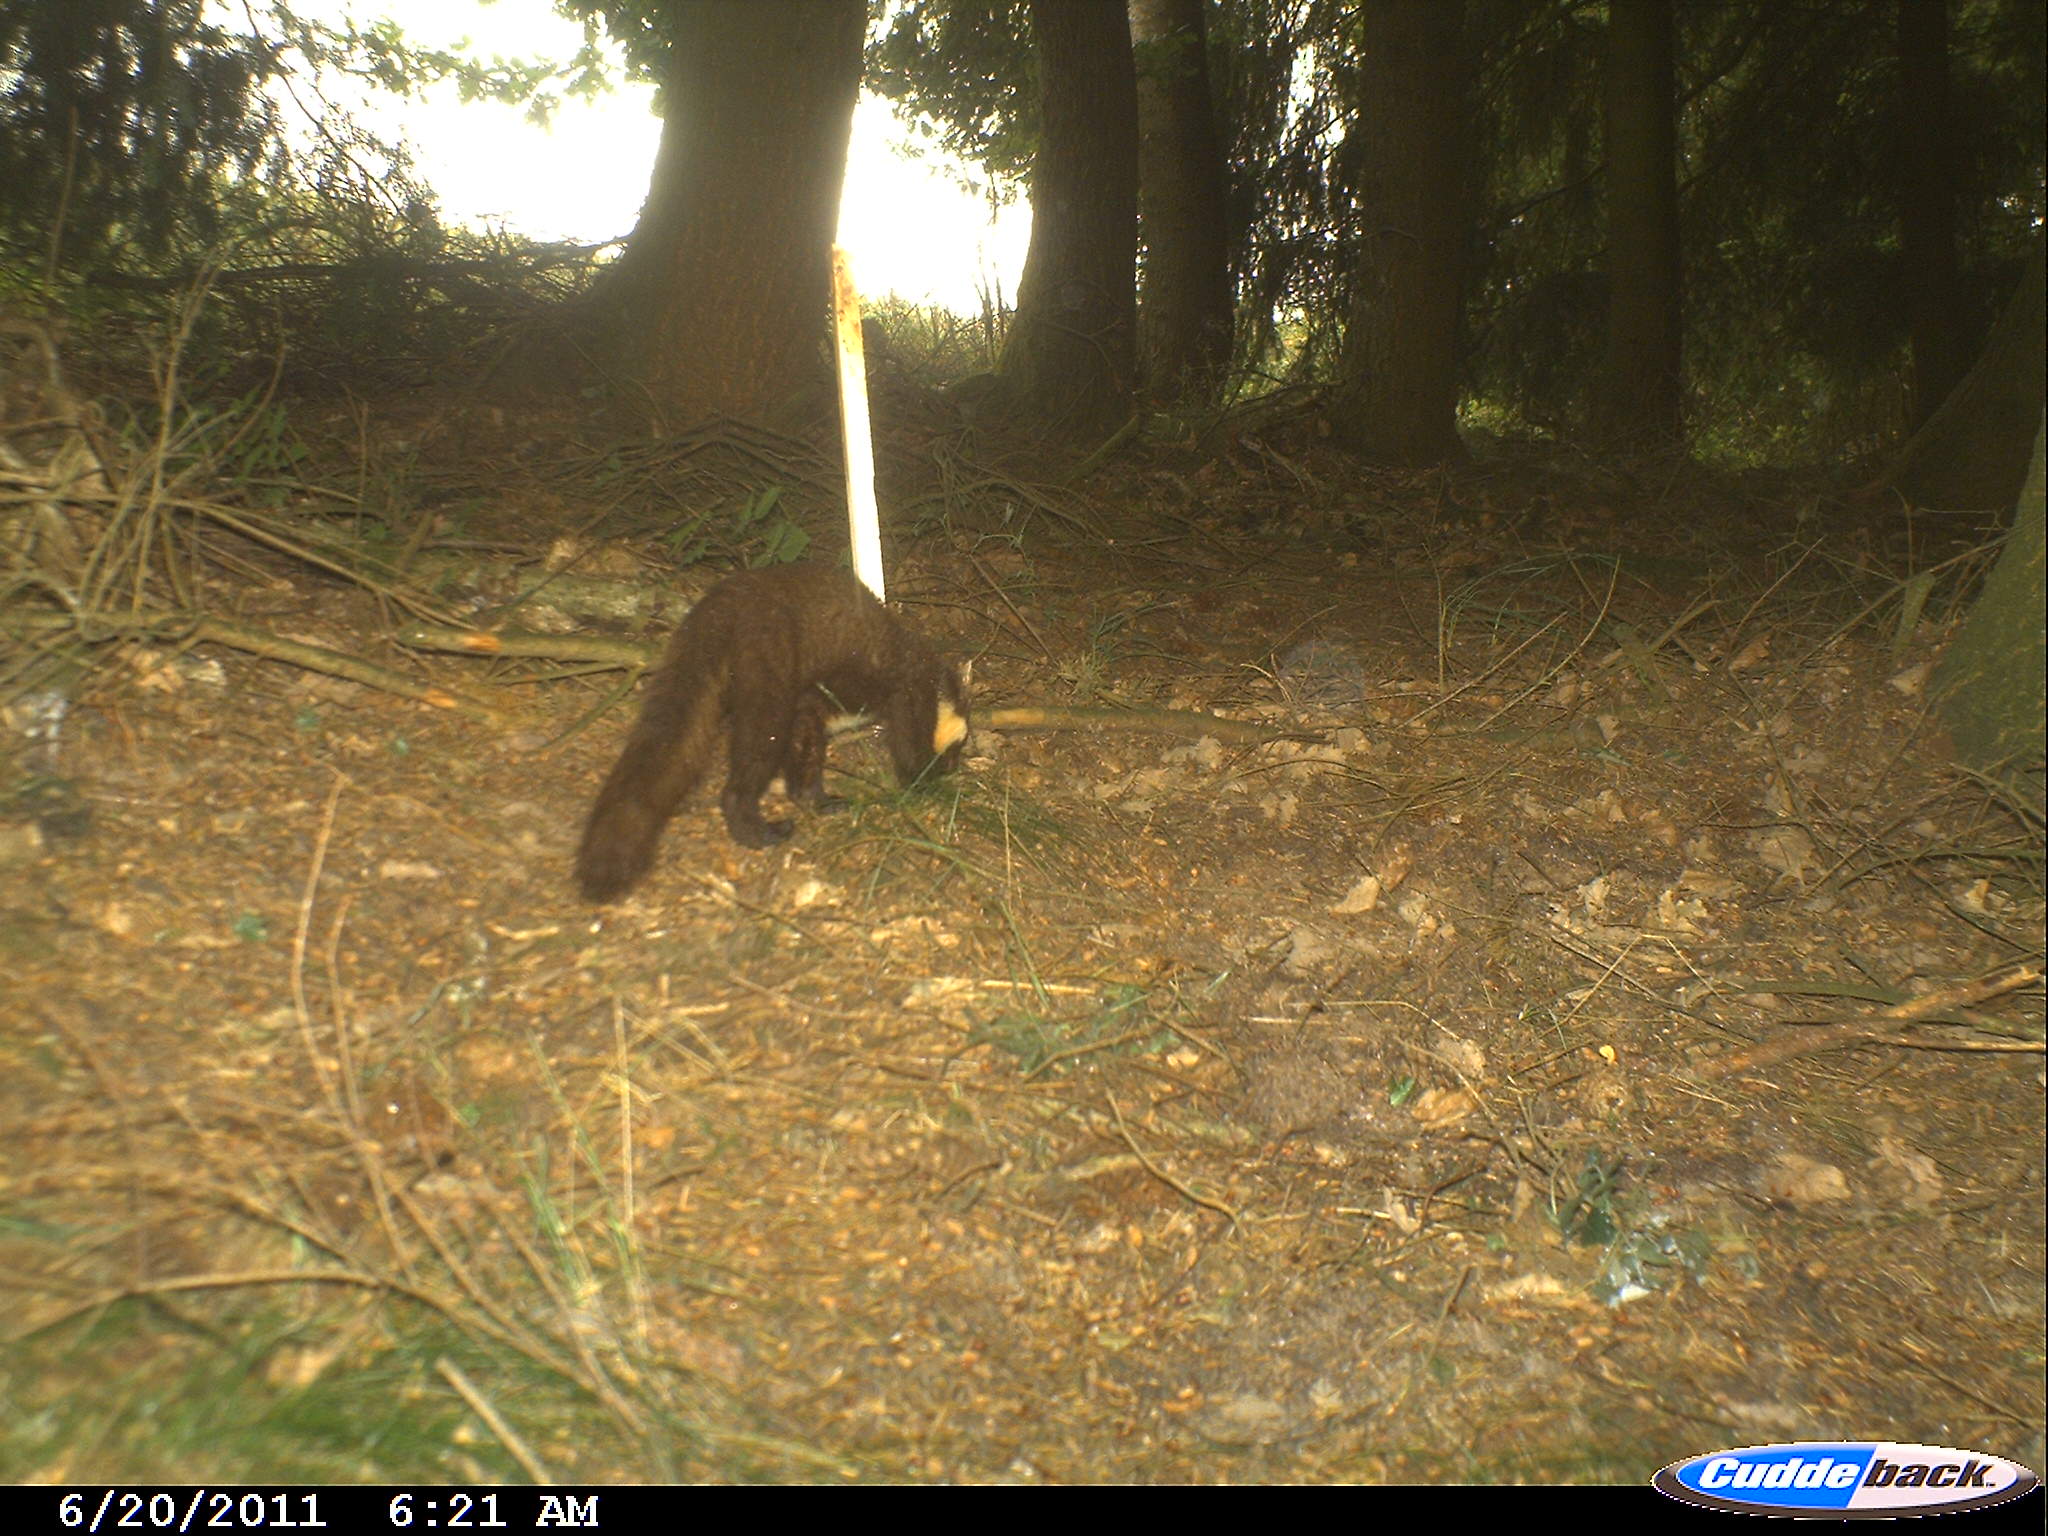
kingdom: Animalia
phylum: Chordata
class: Mammalia
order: Carnivora
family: Mustelidae
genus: Martes
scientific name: Martes martes
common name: European pine marten
